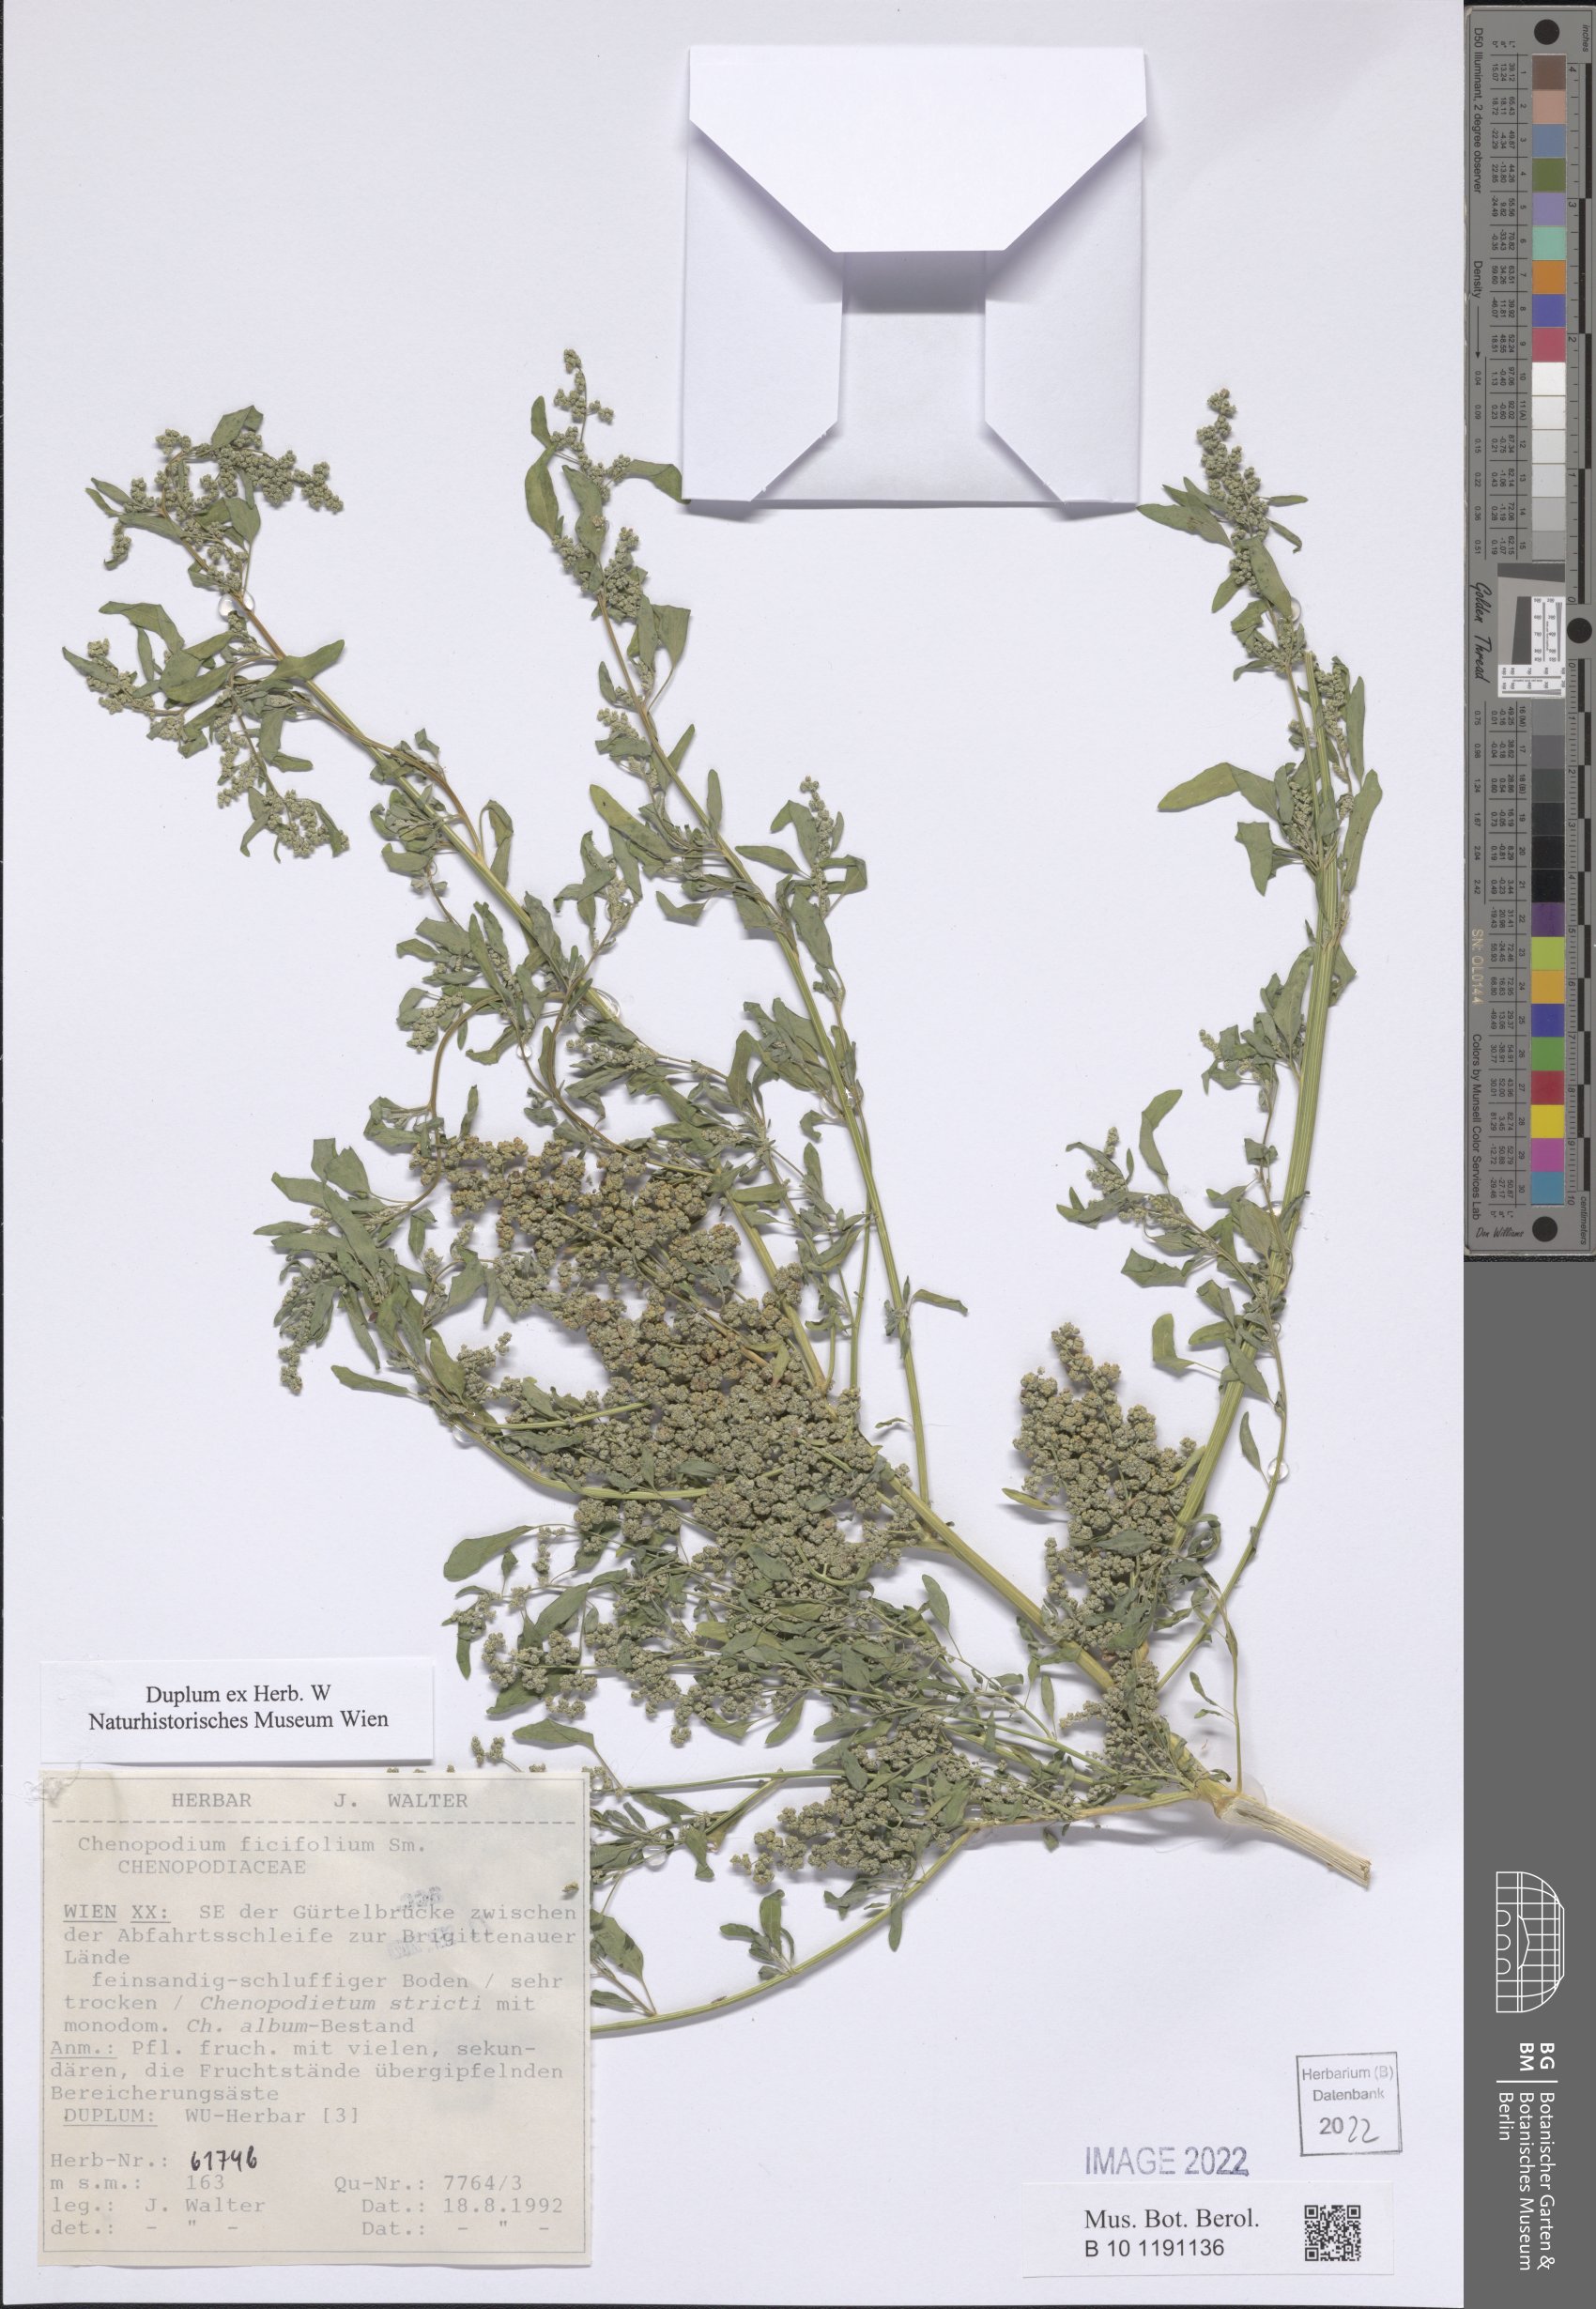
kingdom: Plantae
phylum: Tracheophyta
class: Magnoliopsida
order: Caryophyllales
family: Amaranthaceae
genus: Chenopodium
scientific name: Chenopodium ficifolium
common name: Fig-leaved goosefoot
